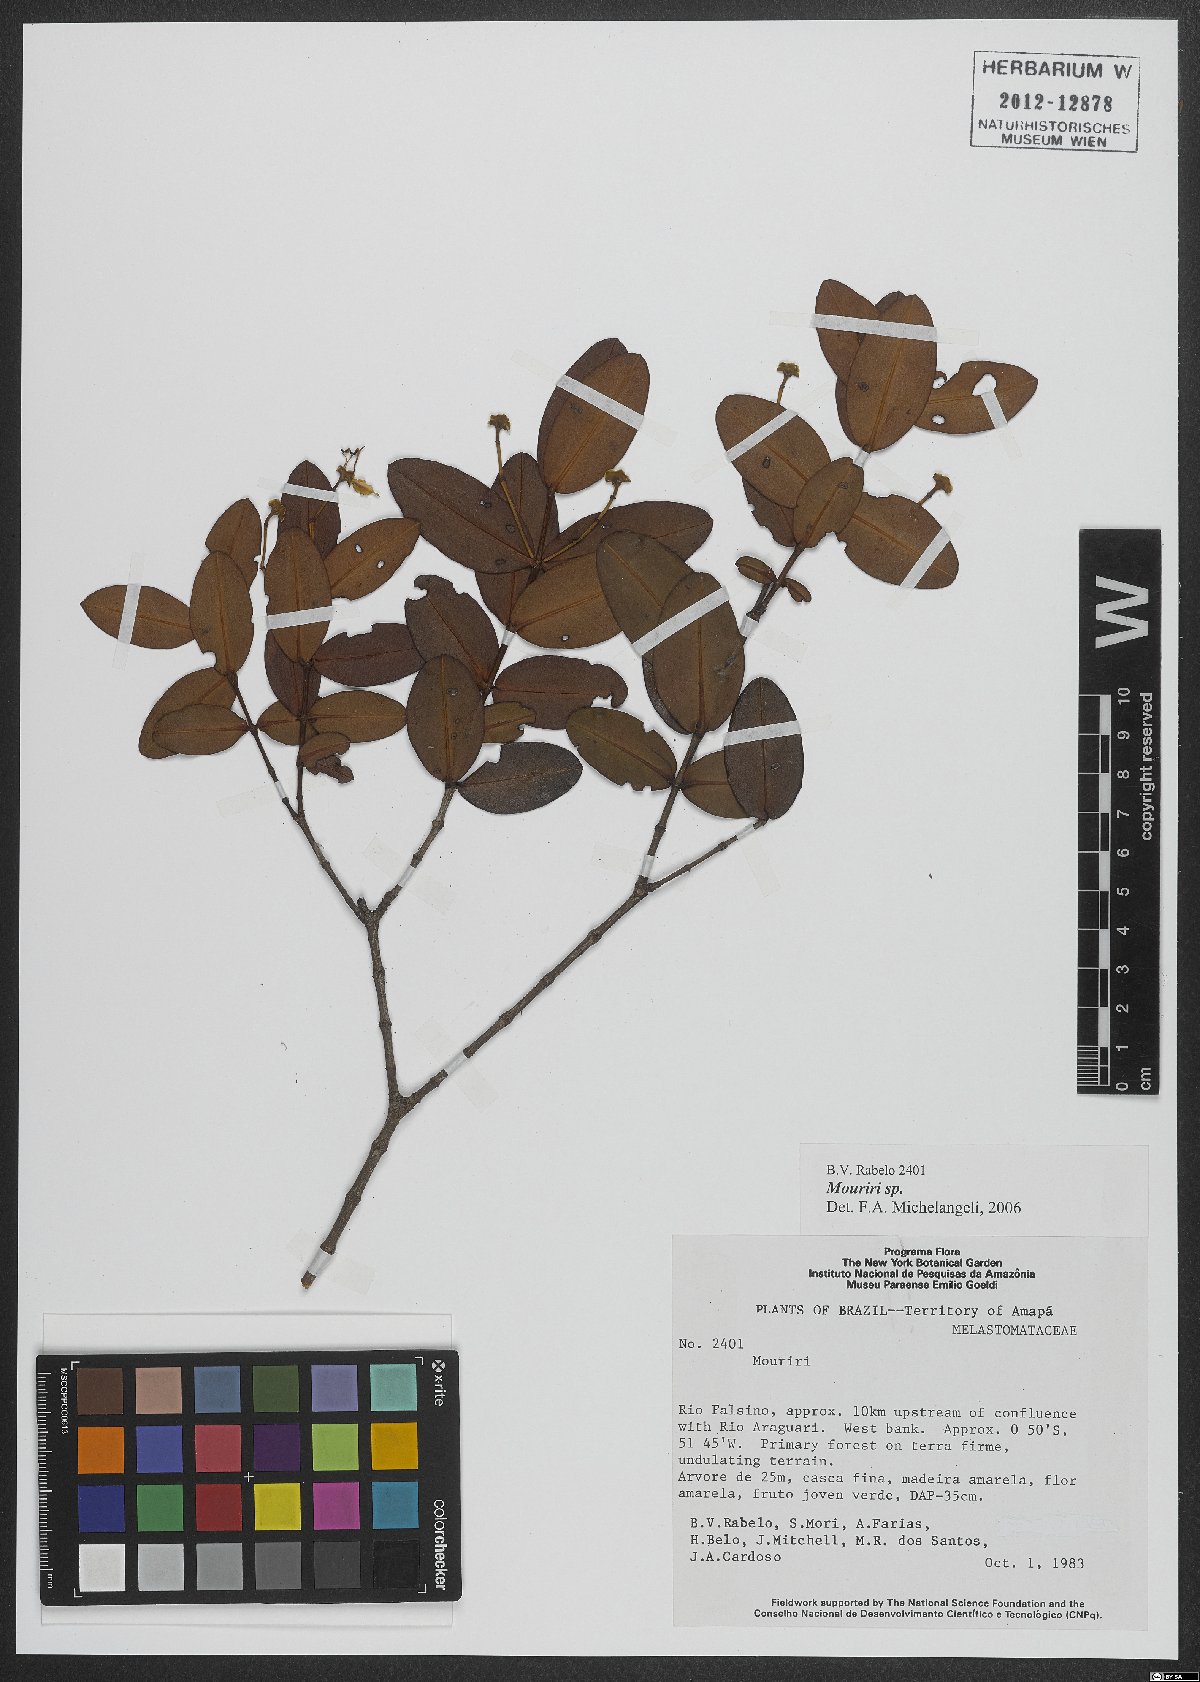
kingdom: Plantae
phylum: Tracheophyta
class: Magnoliopsida
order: Myrtales
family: Melastomataceae
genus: Mouriri
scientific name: Mouriri
